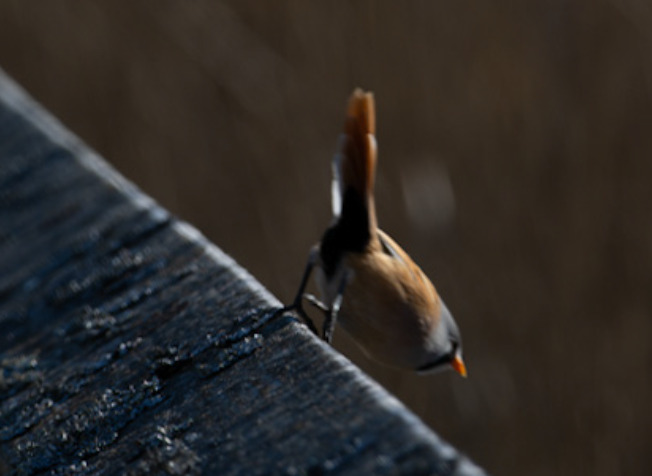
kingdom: Animalia
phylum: Chordata
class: Aves
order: Passeriformes
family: Panuridae
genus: Panurus
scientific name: Panurus biarmicus
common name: Skægmejse
